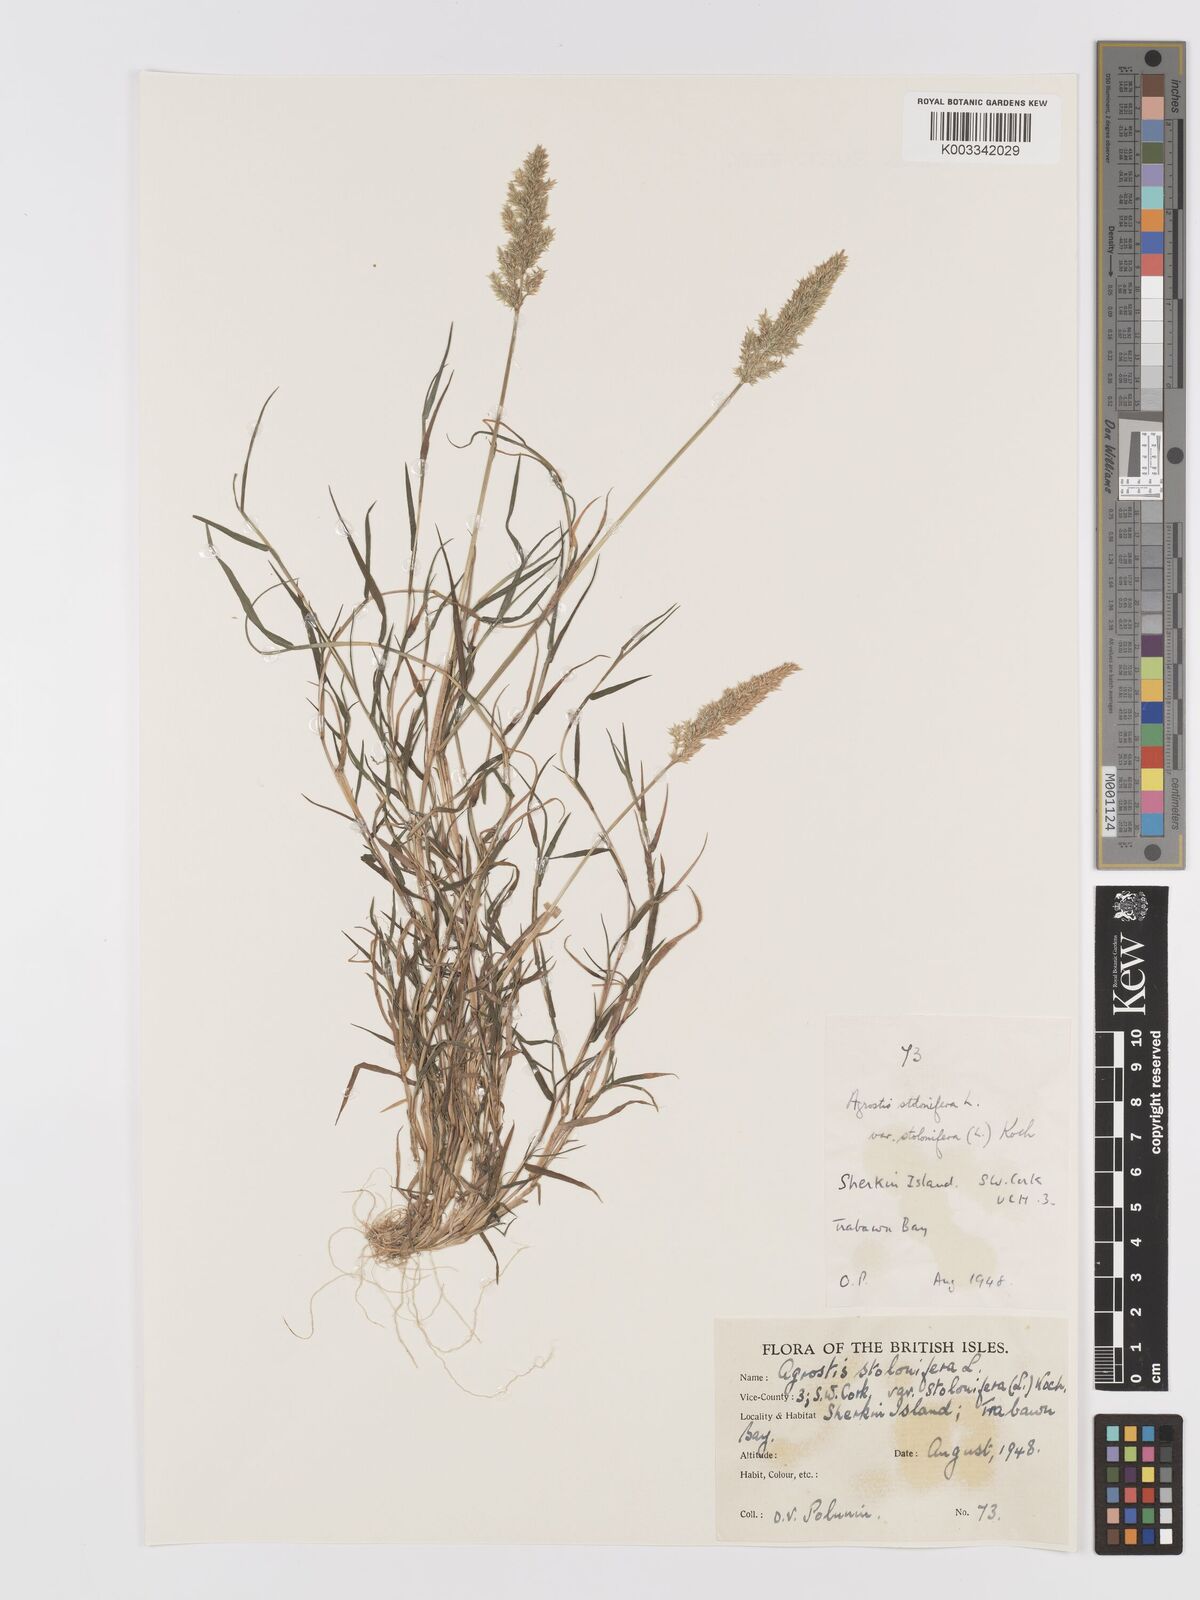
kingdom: Plantae
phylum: Tracheophyta
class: Liliopsida
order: Poales
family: Poaceae
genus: Agrostis
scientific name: Agrostis stolonifera
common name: Creeping bentgrass
